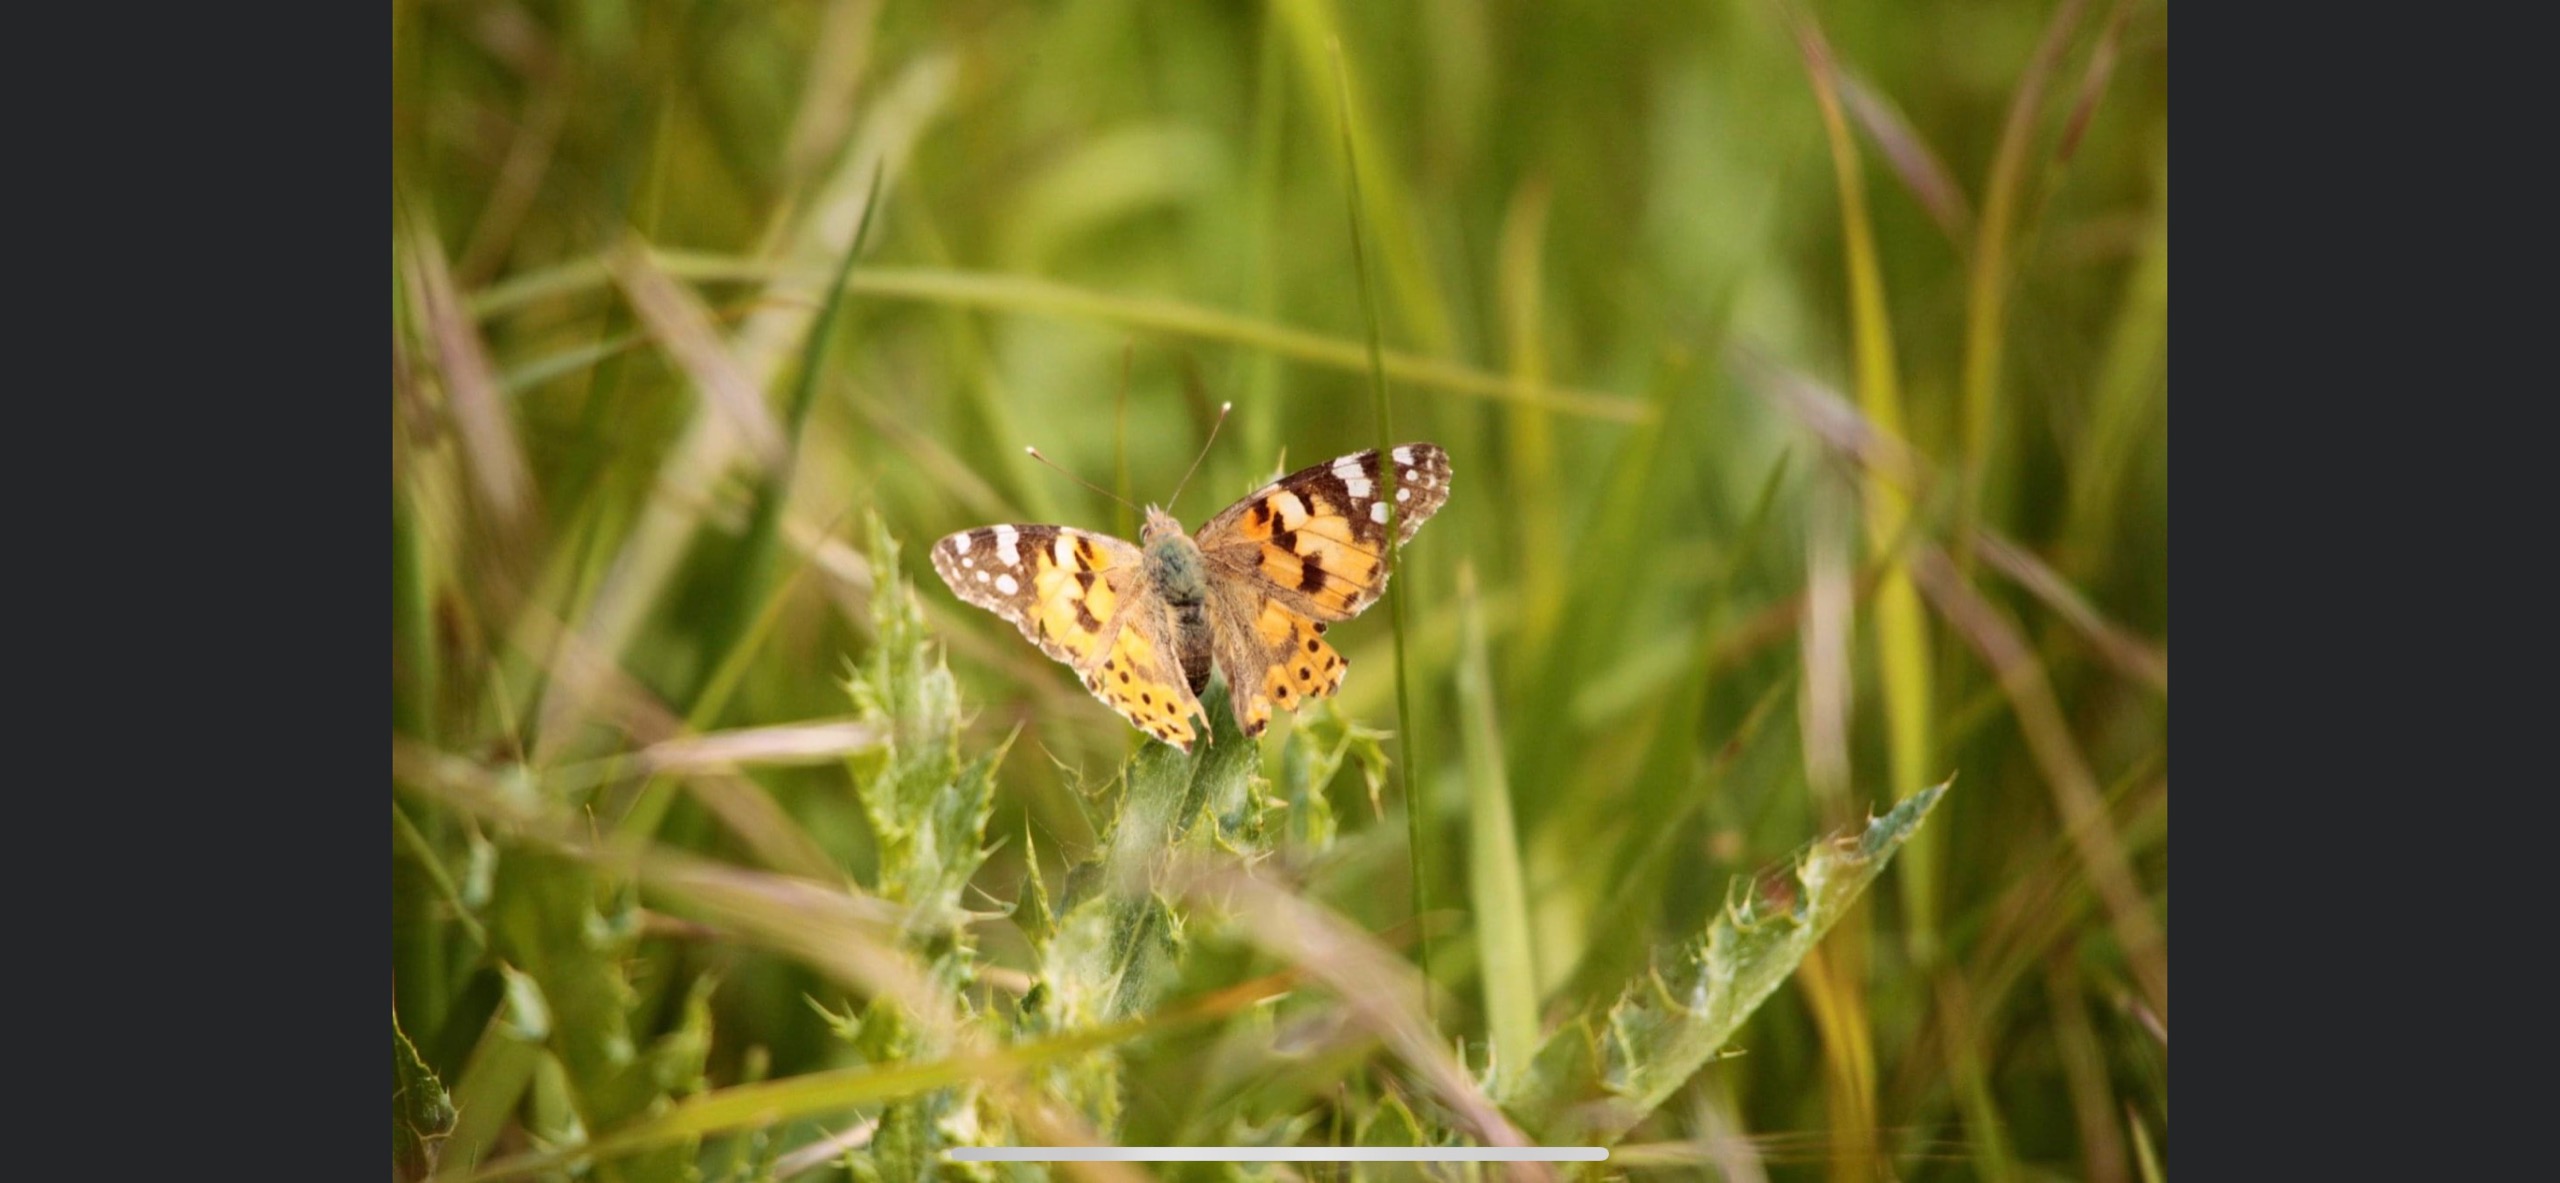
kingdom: Animalia
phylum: Arthropoda
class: Insecta
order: Lepidoptera
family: Nymphalidae
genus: Vanessa
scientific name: Vanessa cardui
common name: Tidselsommerfugl
